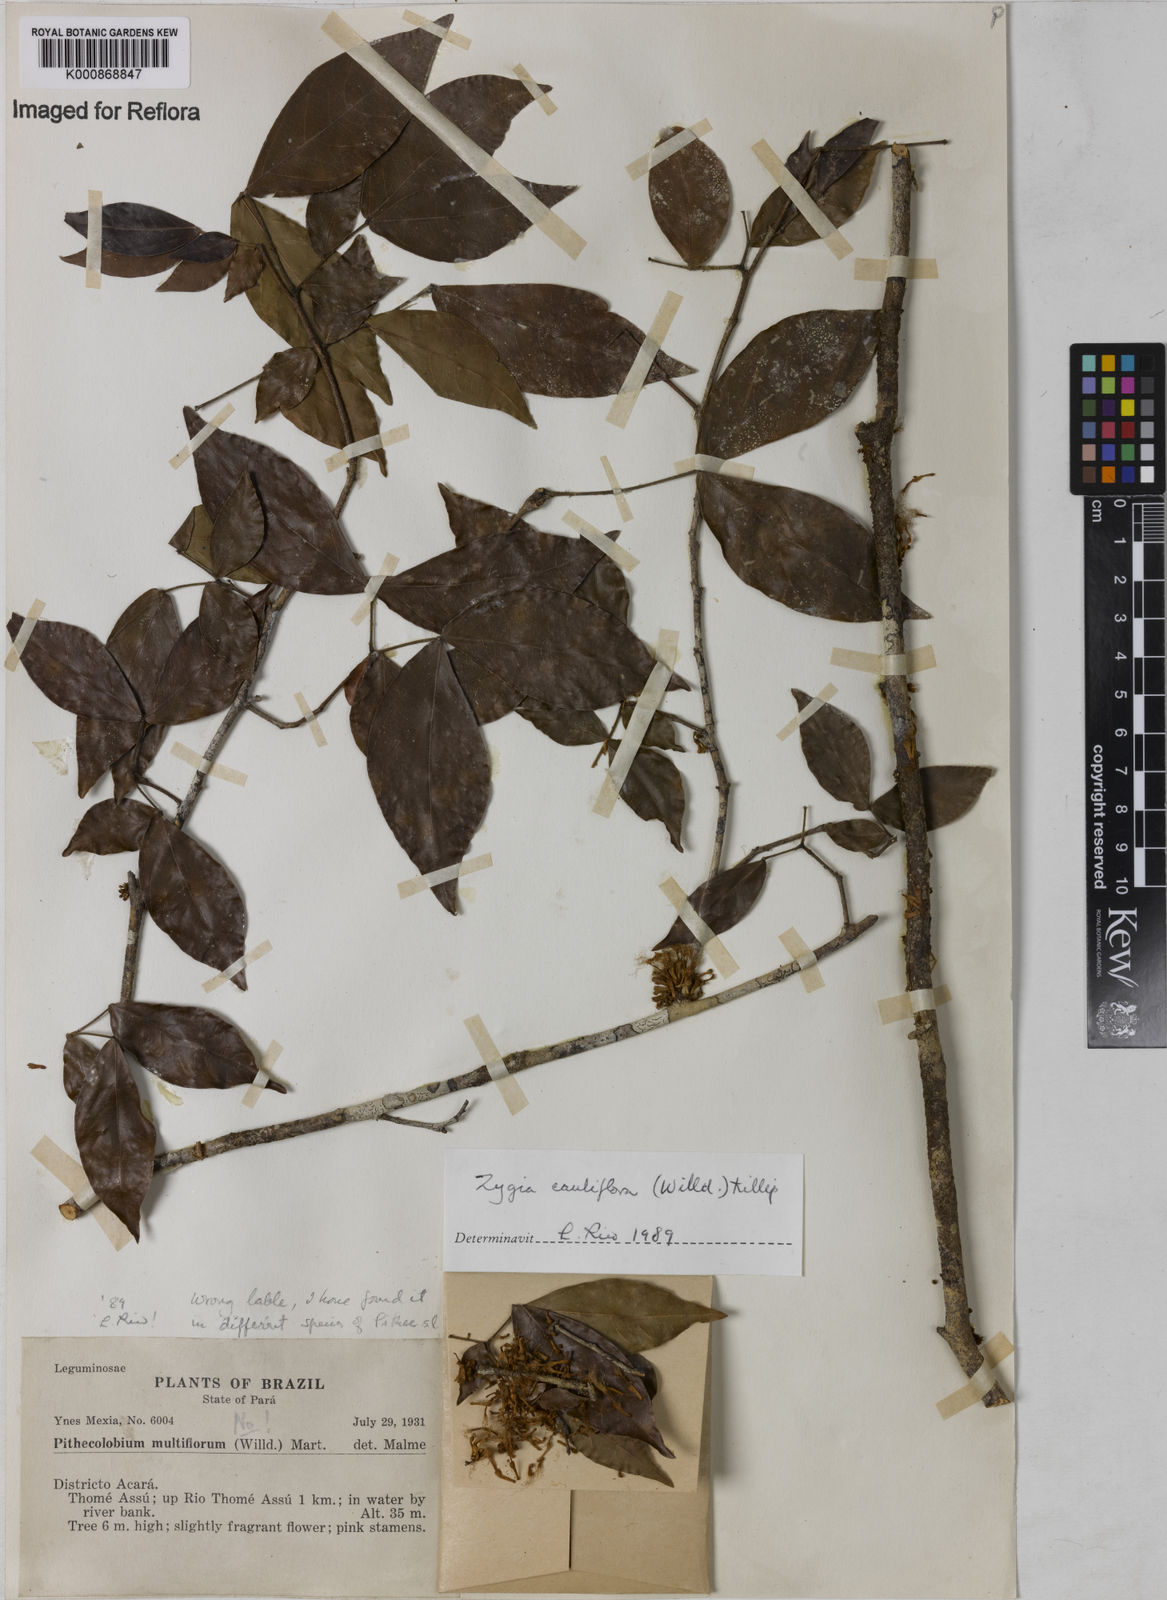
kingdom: Plantae
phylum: Tracheophyta
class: Magnoliopsida
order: Fabales
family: Fabaceae
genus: Zygia
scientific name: Zygia
